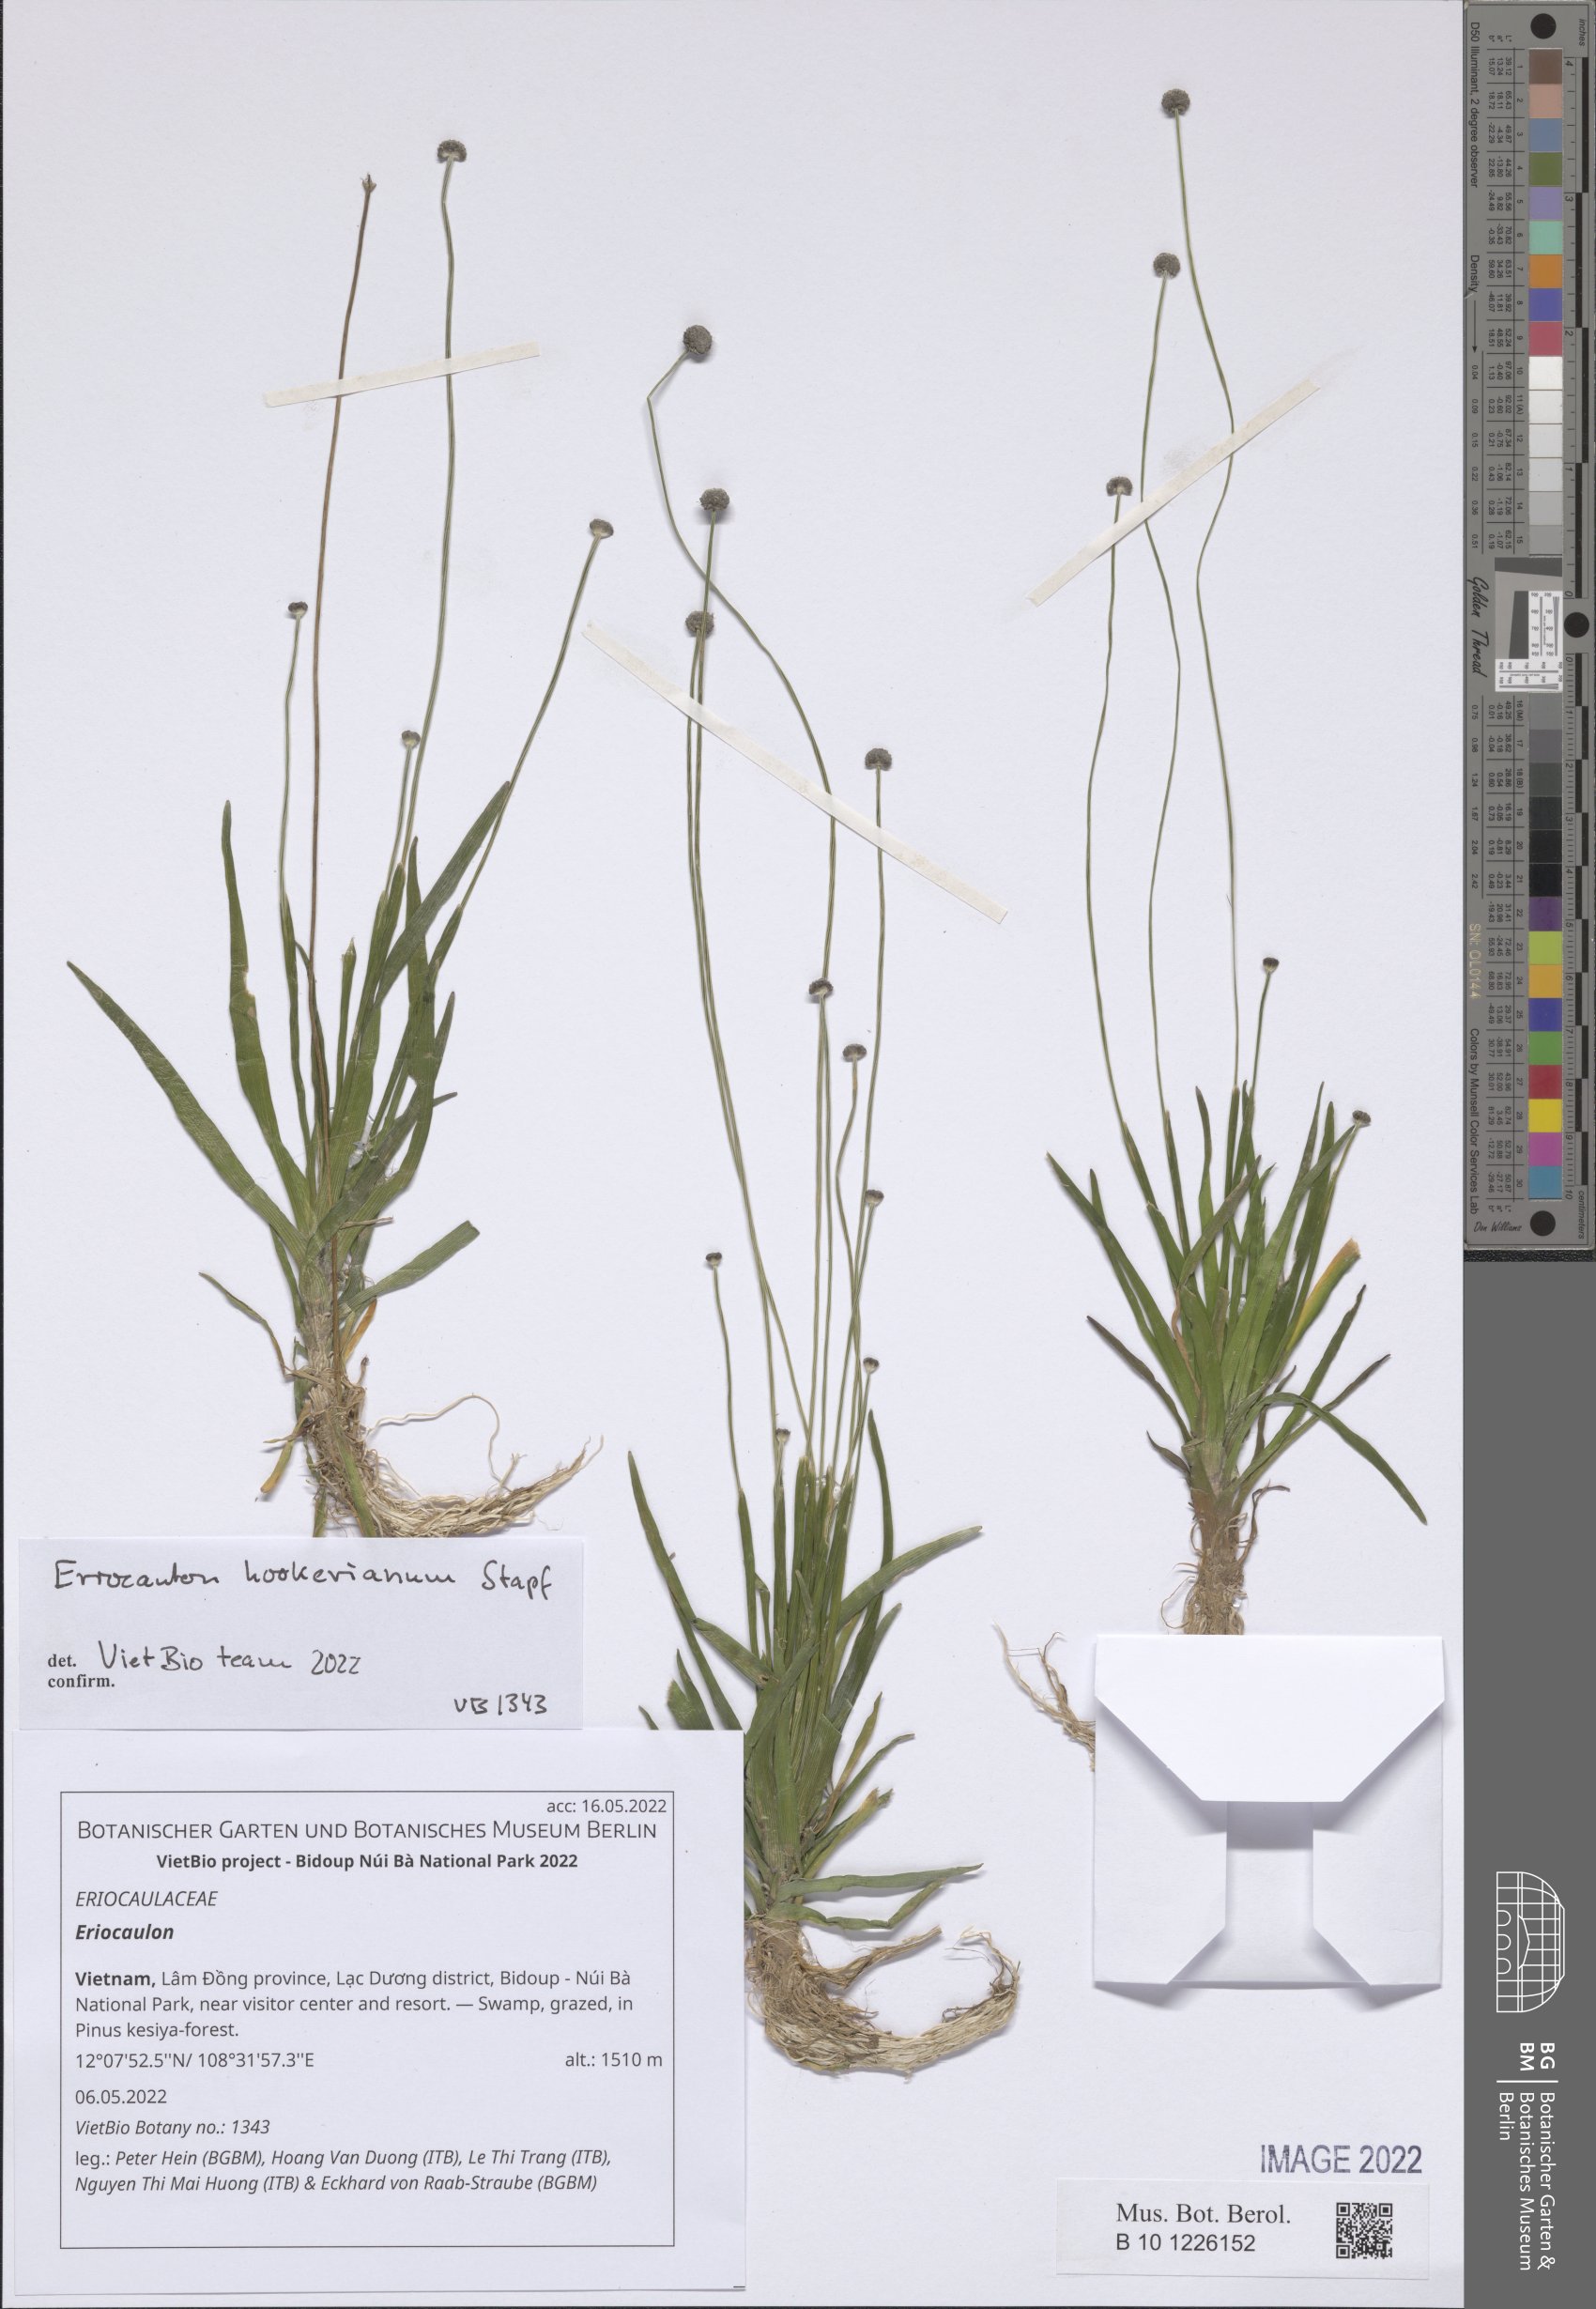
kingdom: Plantae
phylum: Tracheophyta
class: Liliopsida
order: Poales
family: Eriocaulaceae
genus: Eriocaulon
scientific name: Eriocaulon
